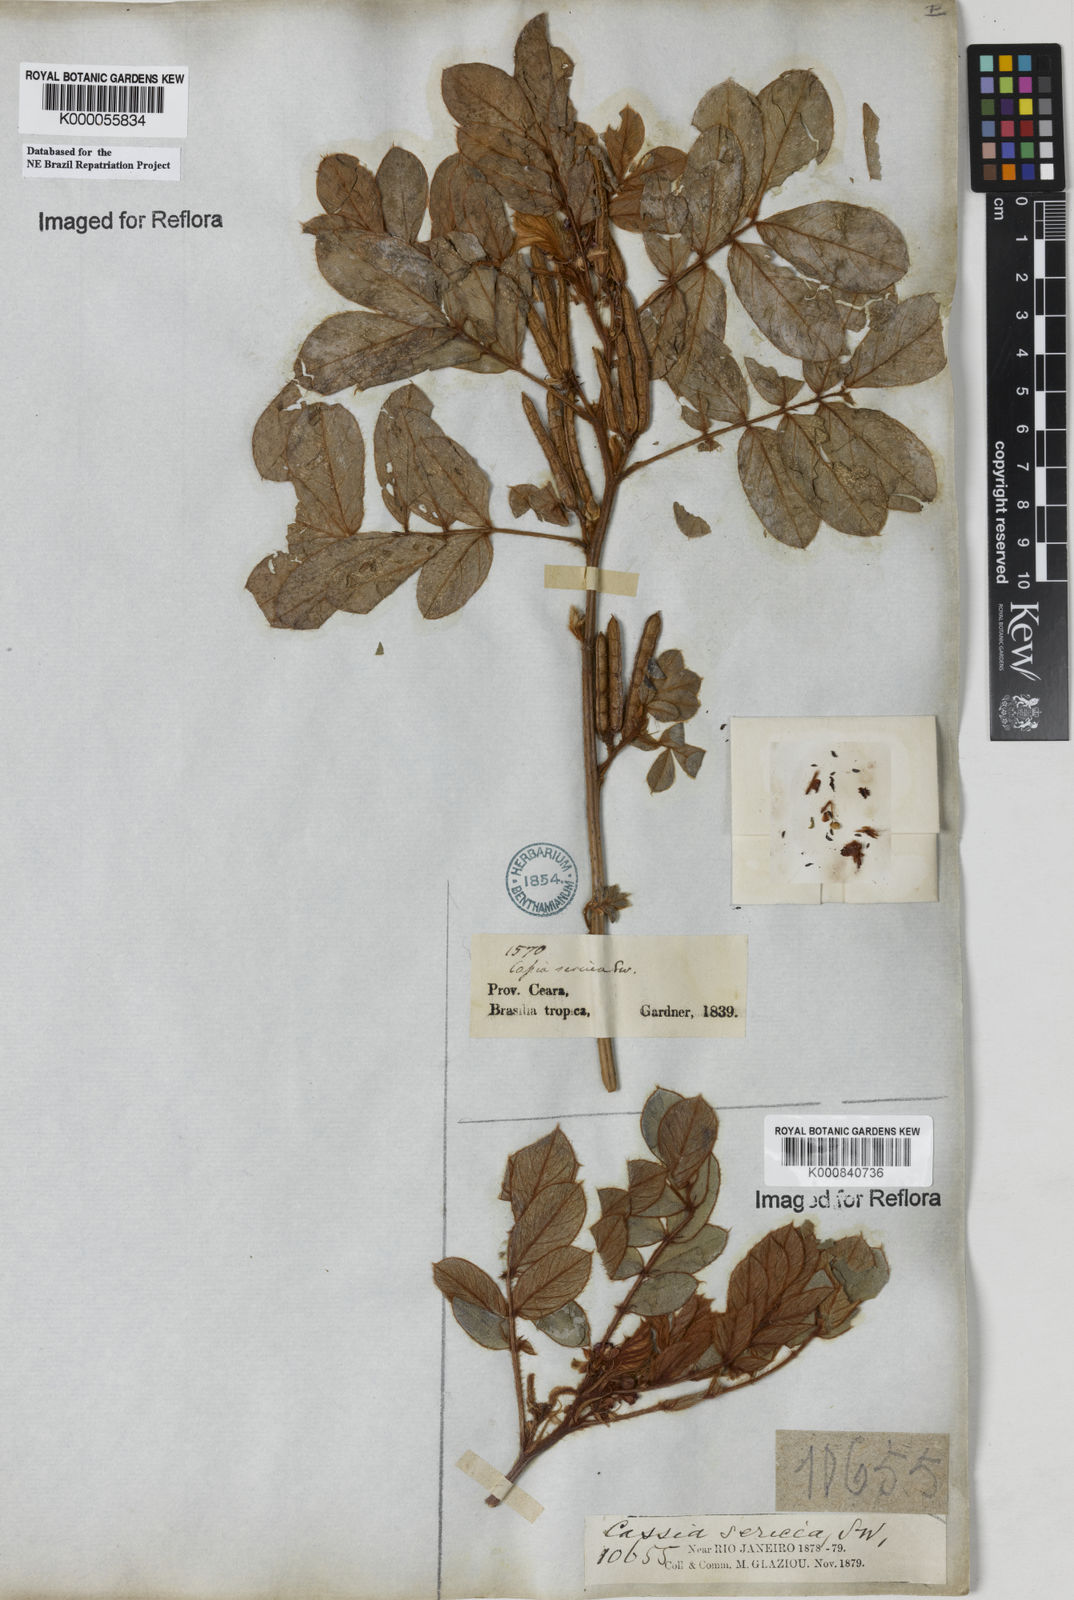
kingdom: Plantae
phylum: Tracheophyta
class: Magnoliopsida
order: Fabales
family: Fabaceae
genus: Senna
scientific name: Senna uniflora
